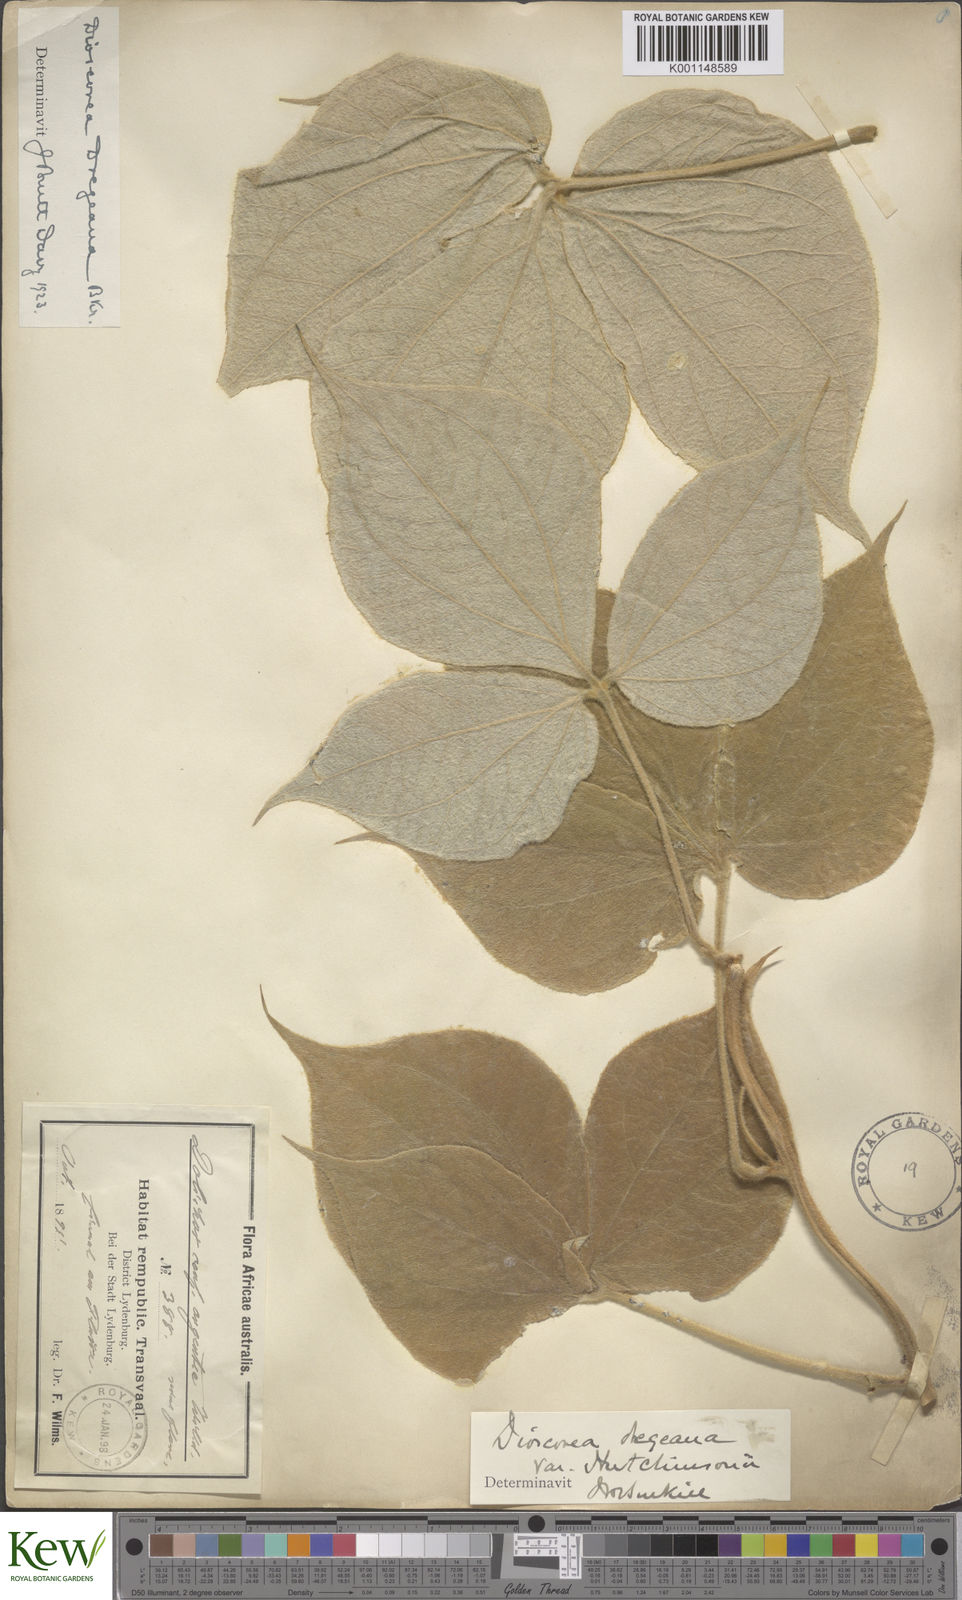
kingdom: Plantae
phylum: Tracheophyta
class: Liliopsida
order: Dioscoreales
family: Dioscoreaceae
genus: Dioscorea
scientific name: Dioscorea dregeana
